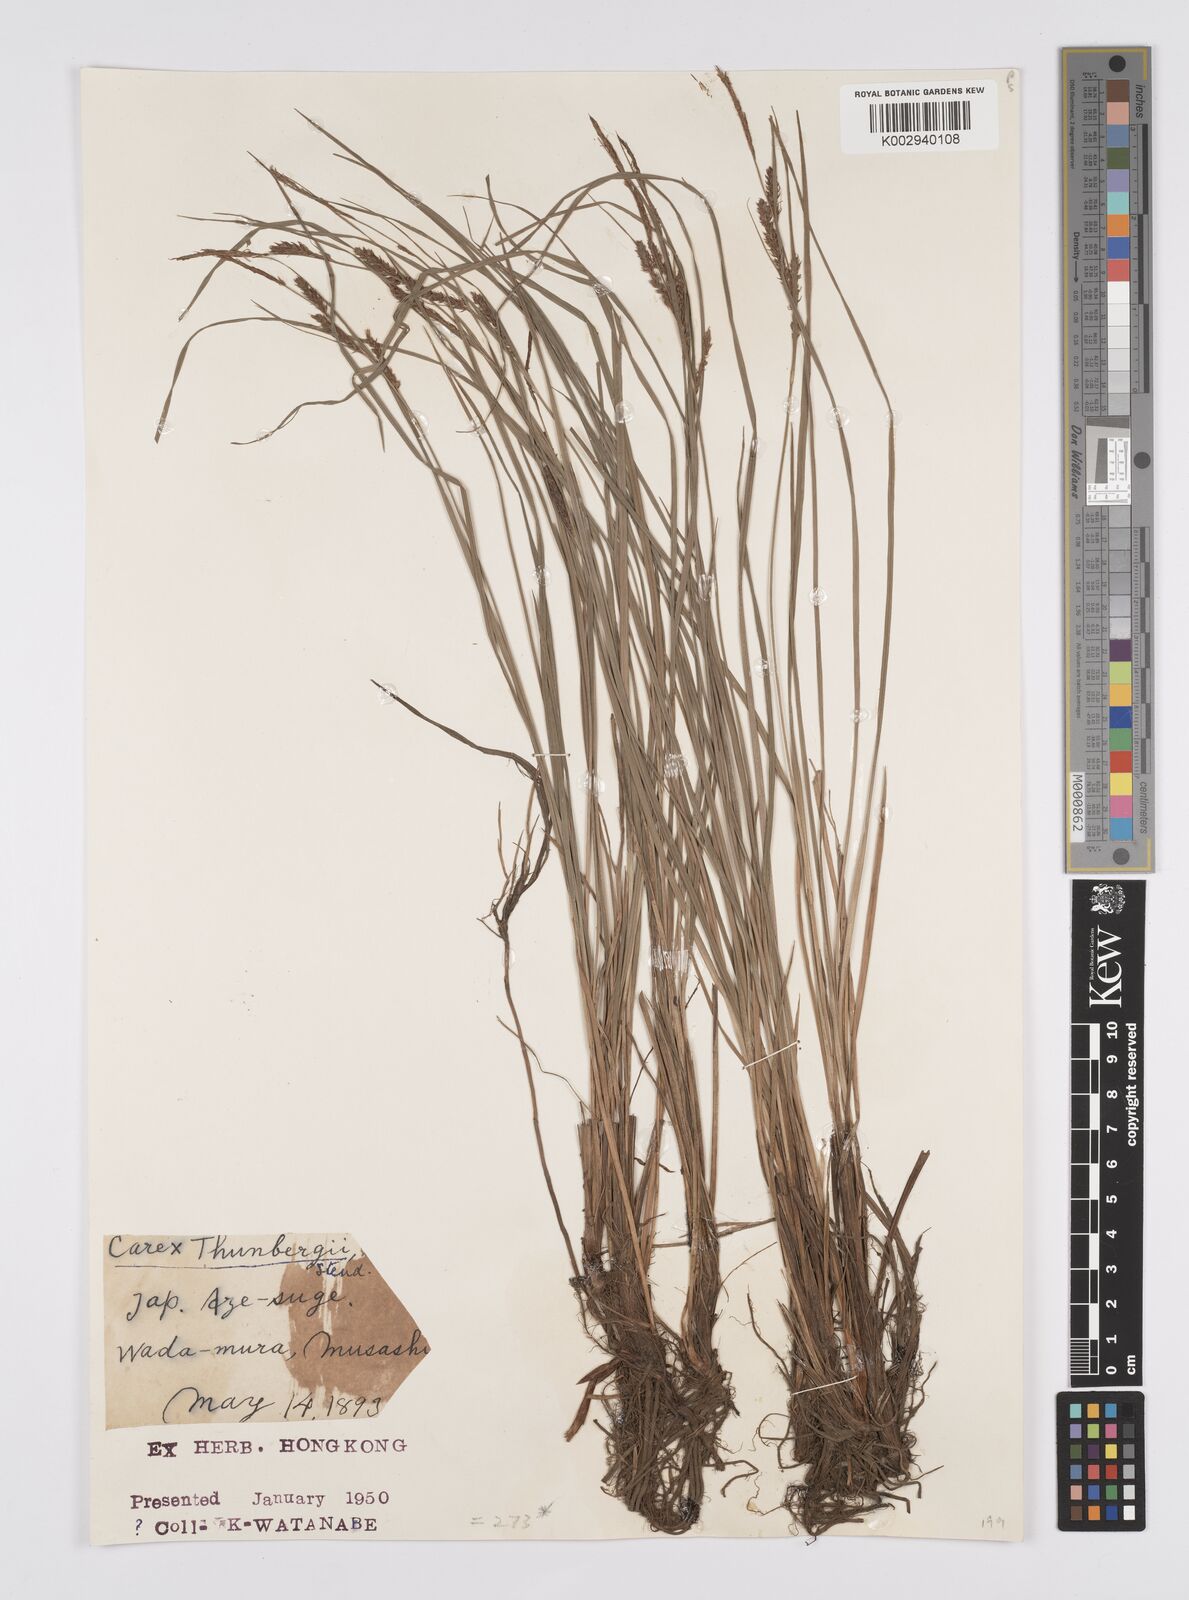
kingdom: Plantae
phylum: Tracheophyta
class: Liliopsida
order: Poales
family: Cyperaceae
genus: Carex
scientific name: Carex thunbergii
